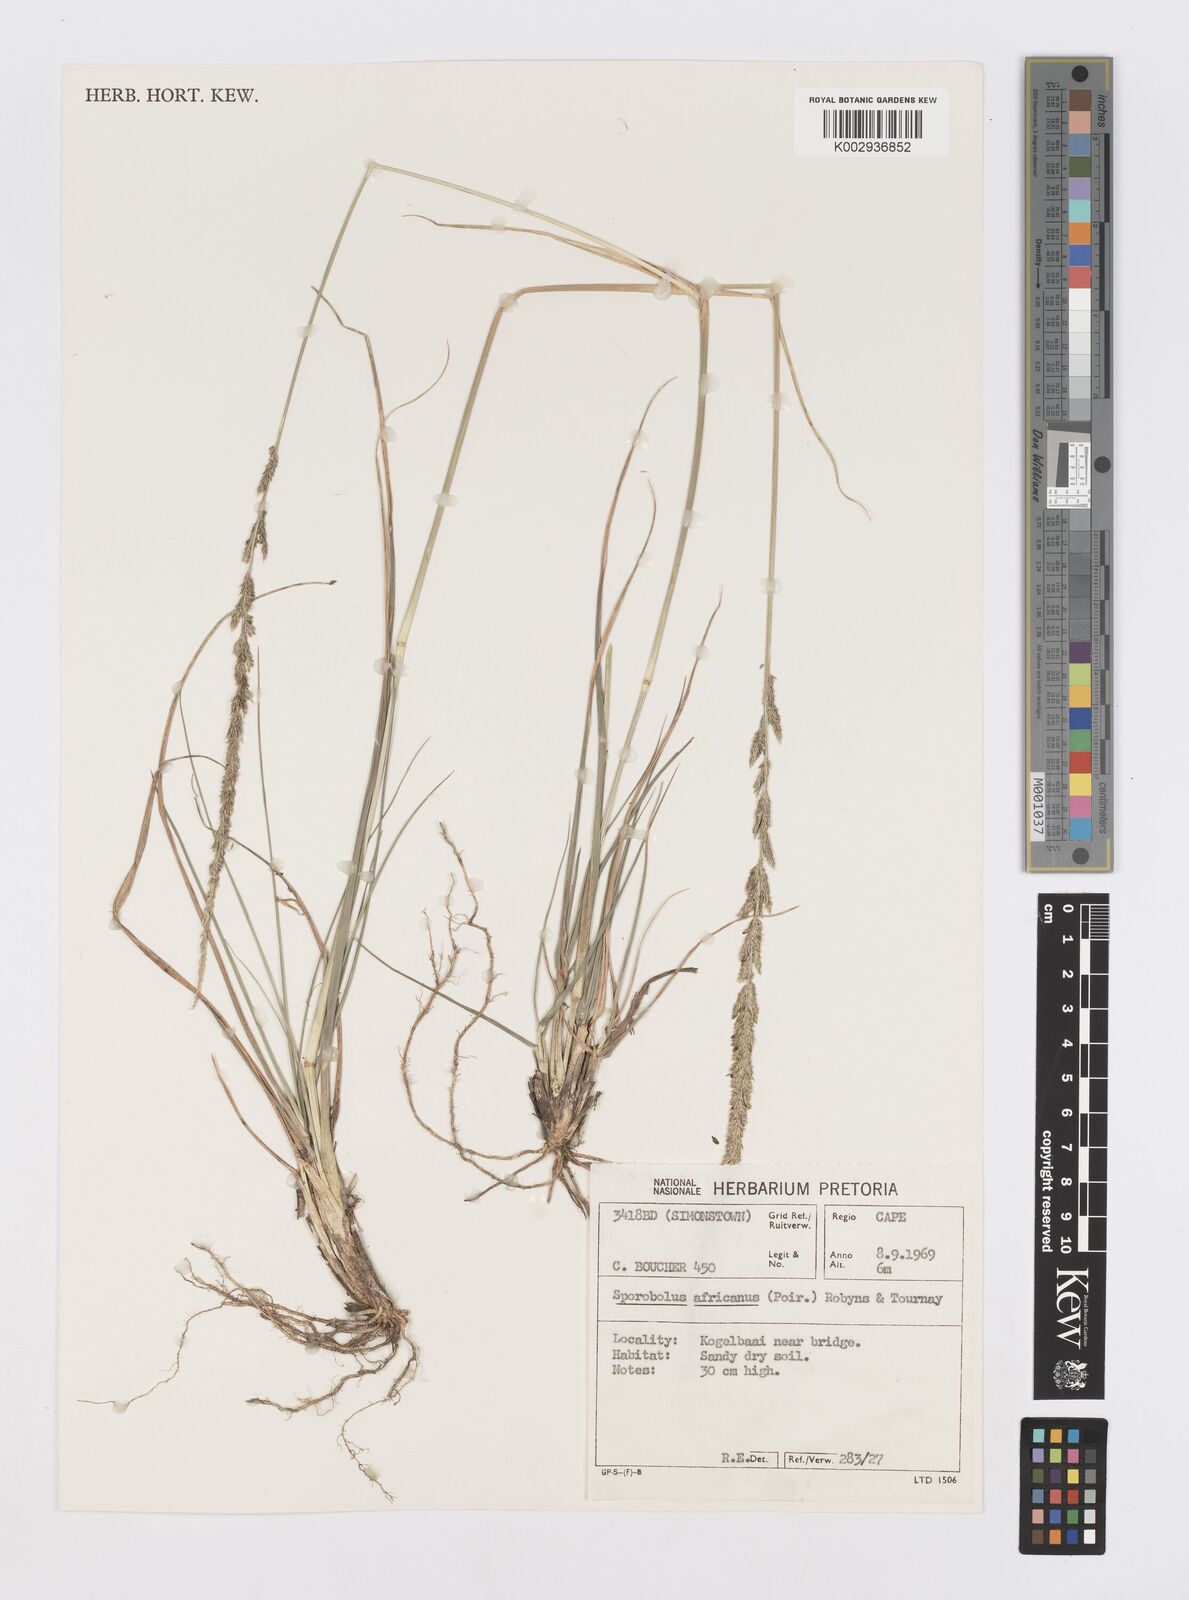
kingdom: Plantae
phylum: Tracheophyta
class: Liliopsida
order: Poales
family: Poaceae
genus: Sporobolus
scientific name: Sporobolus africanus
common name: African dropseed
